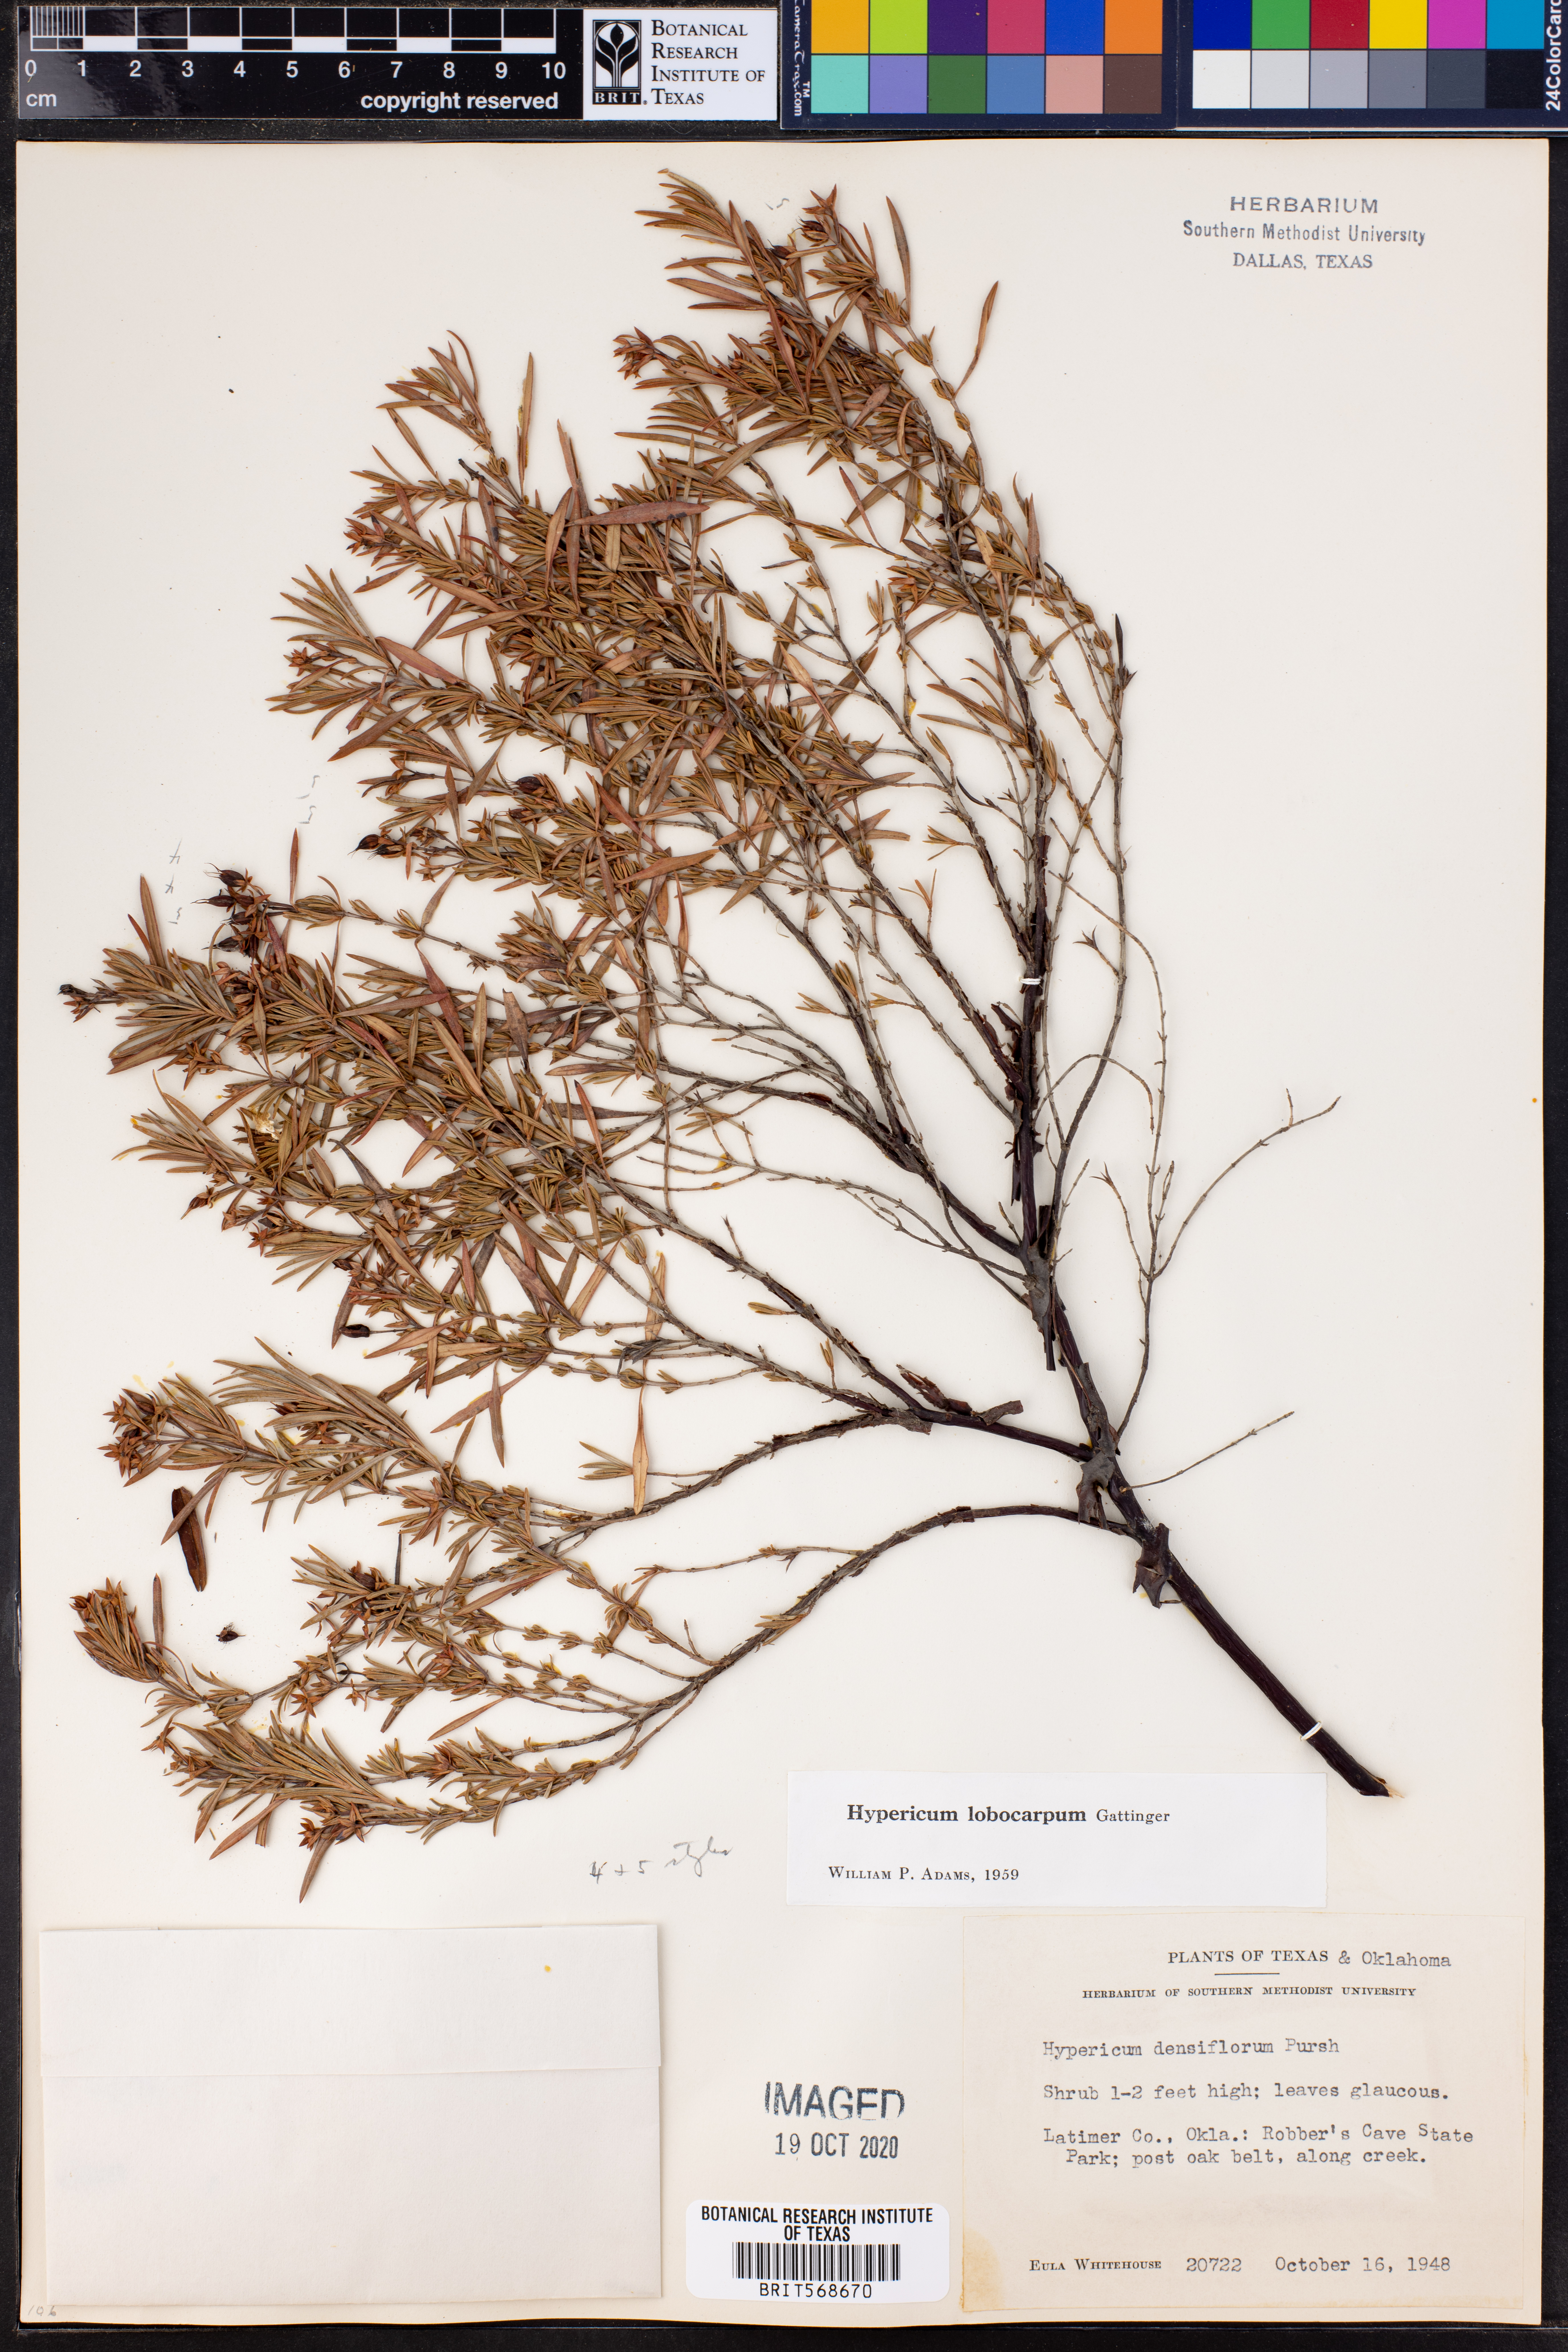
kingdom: Plantae
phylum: Tracheophyta
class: Magnoliopsida
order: Malpighiales
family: Hypericaceae
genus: Hypericum
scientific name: Hypericum lobocarpum
